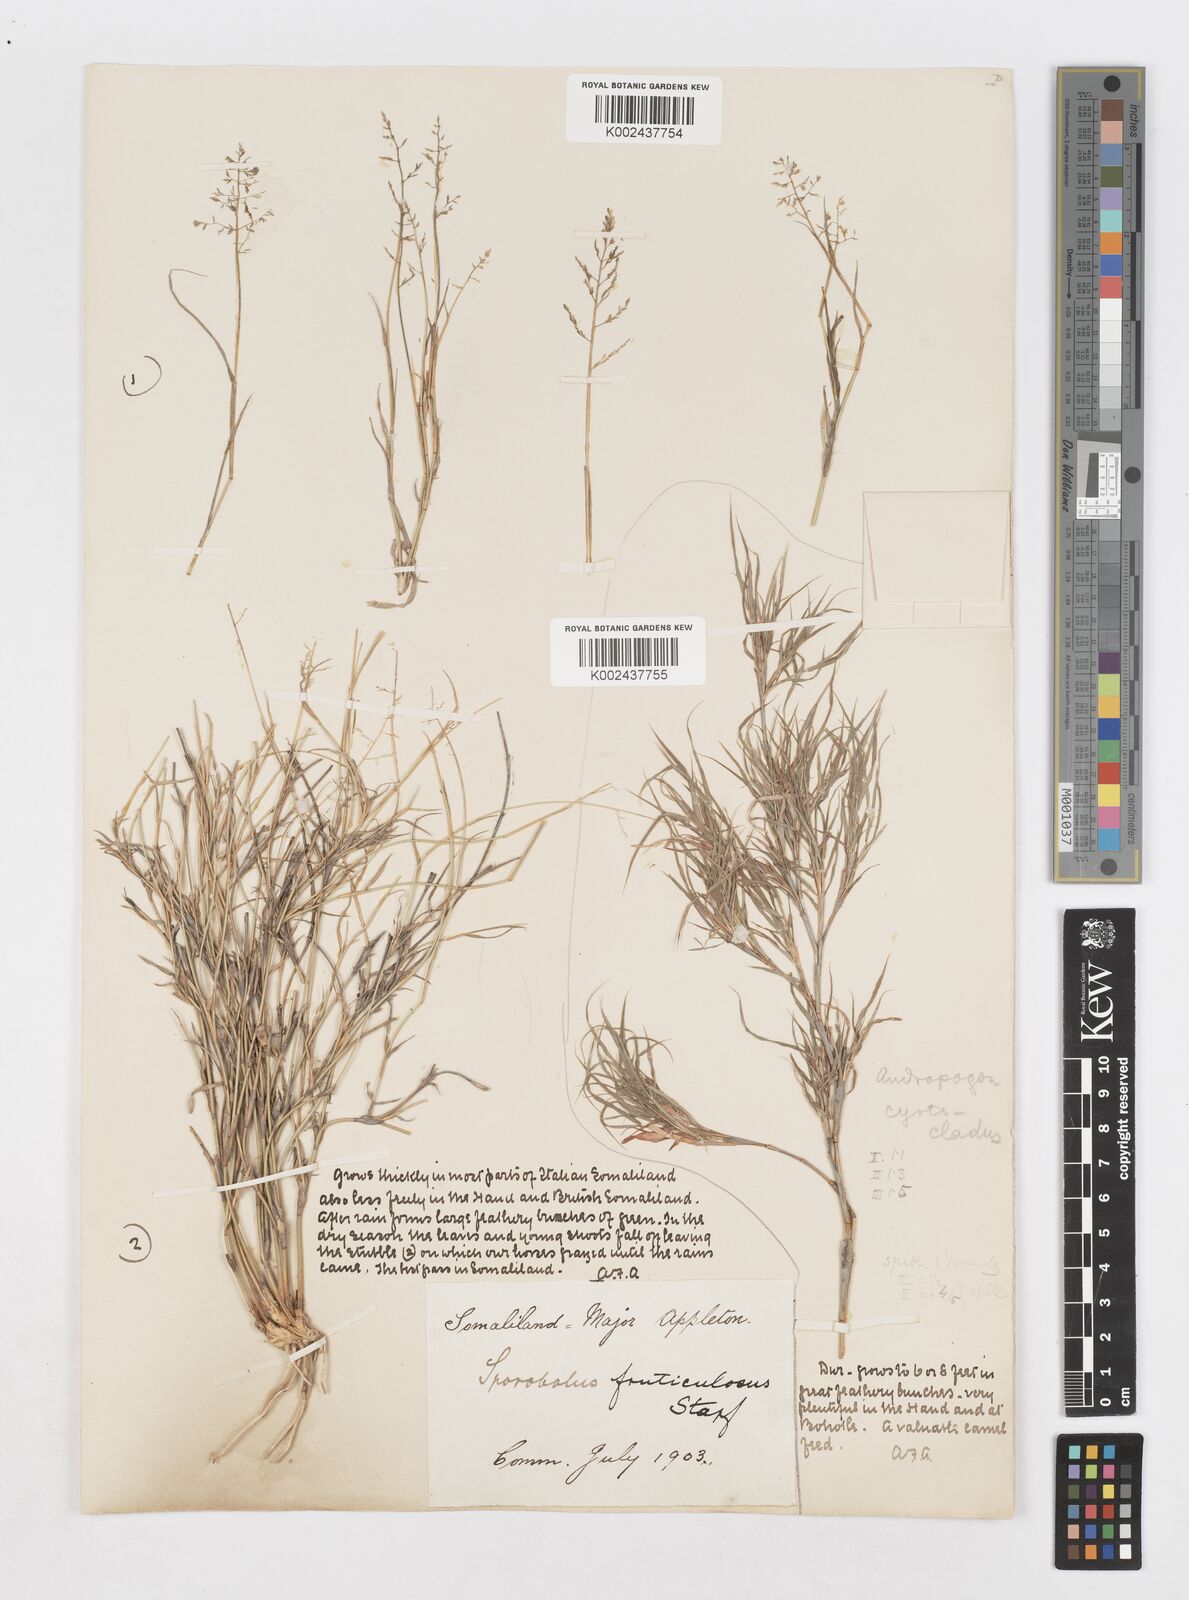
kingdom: Plantae
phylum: Tracheophyta
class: Liliopsida
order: Poales
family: Poaceae
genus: Sporobolus
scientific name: Sporobolus ruspolianus
